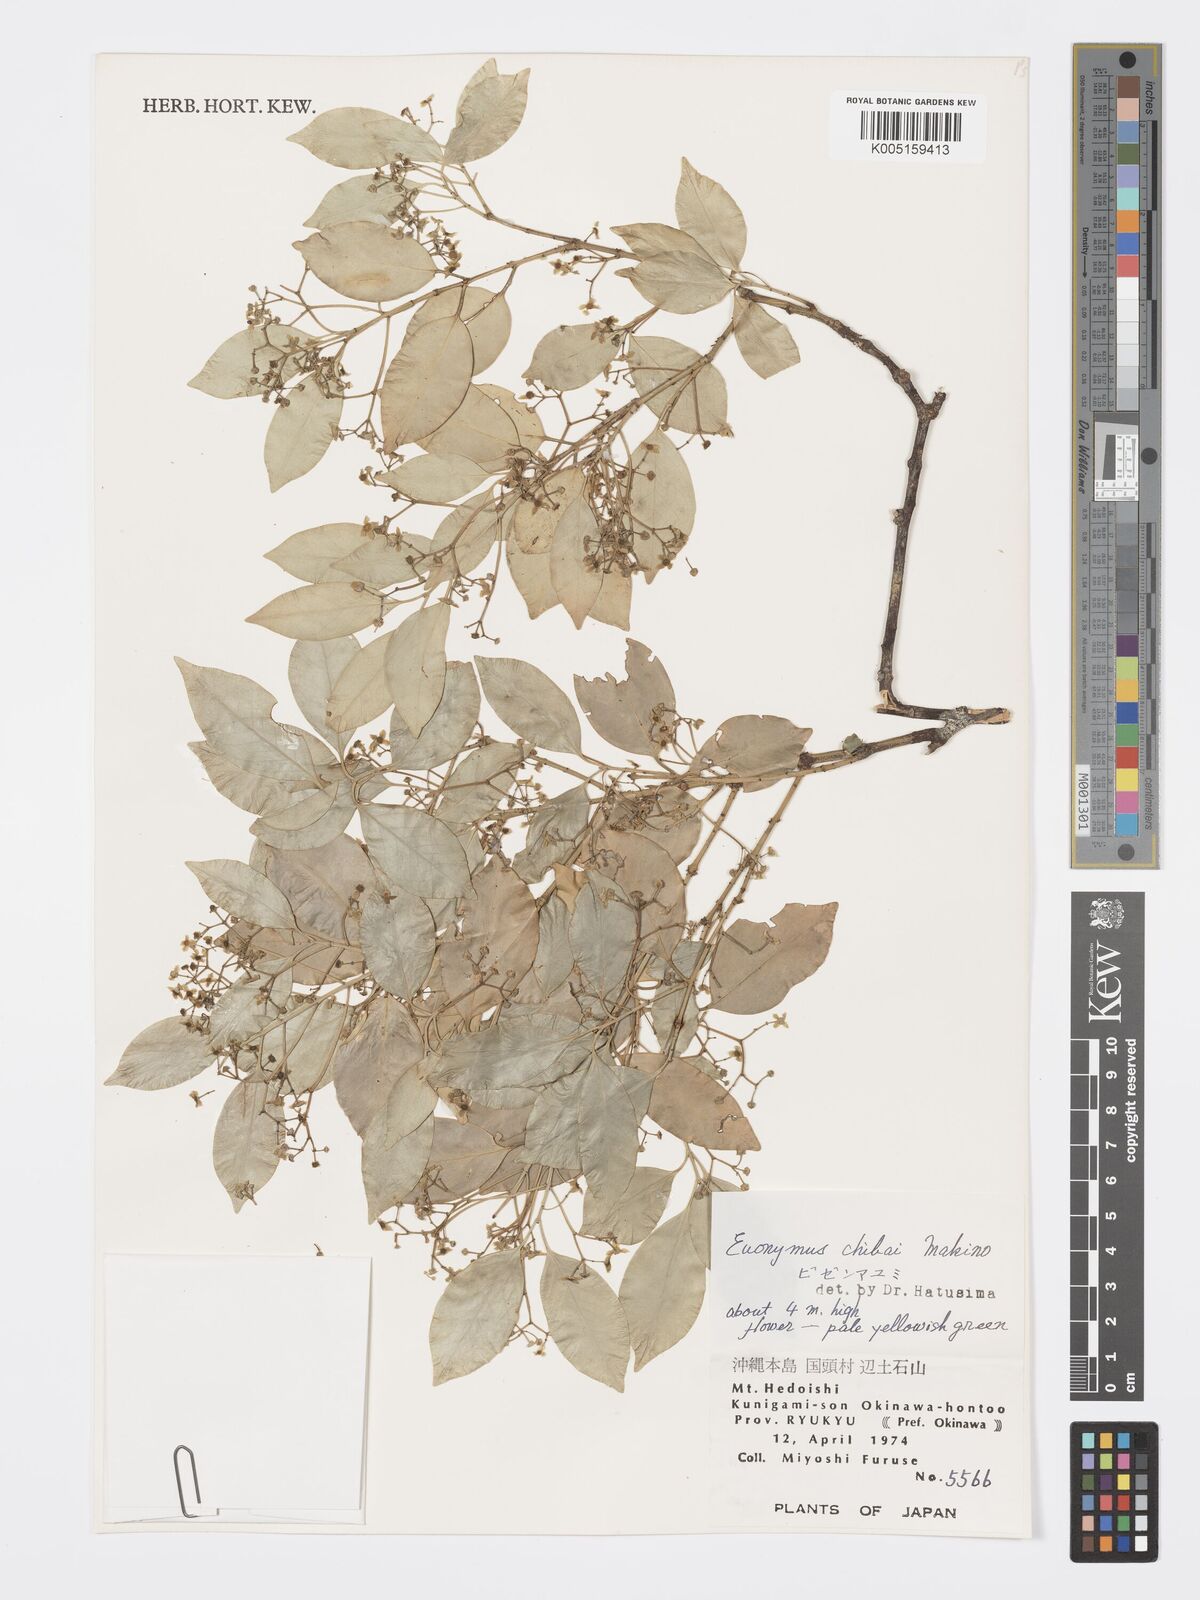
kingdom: Plantae
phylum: Tracheophyta
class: Magnoliopsida
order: Celastrales
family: Celastraceae
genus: Euonymus
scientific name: Euonymus chibae
